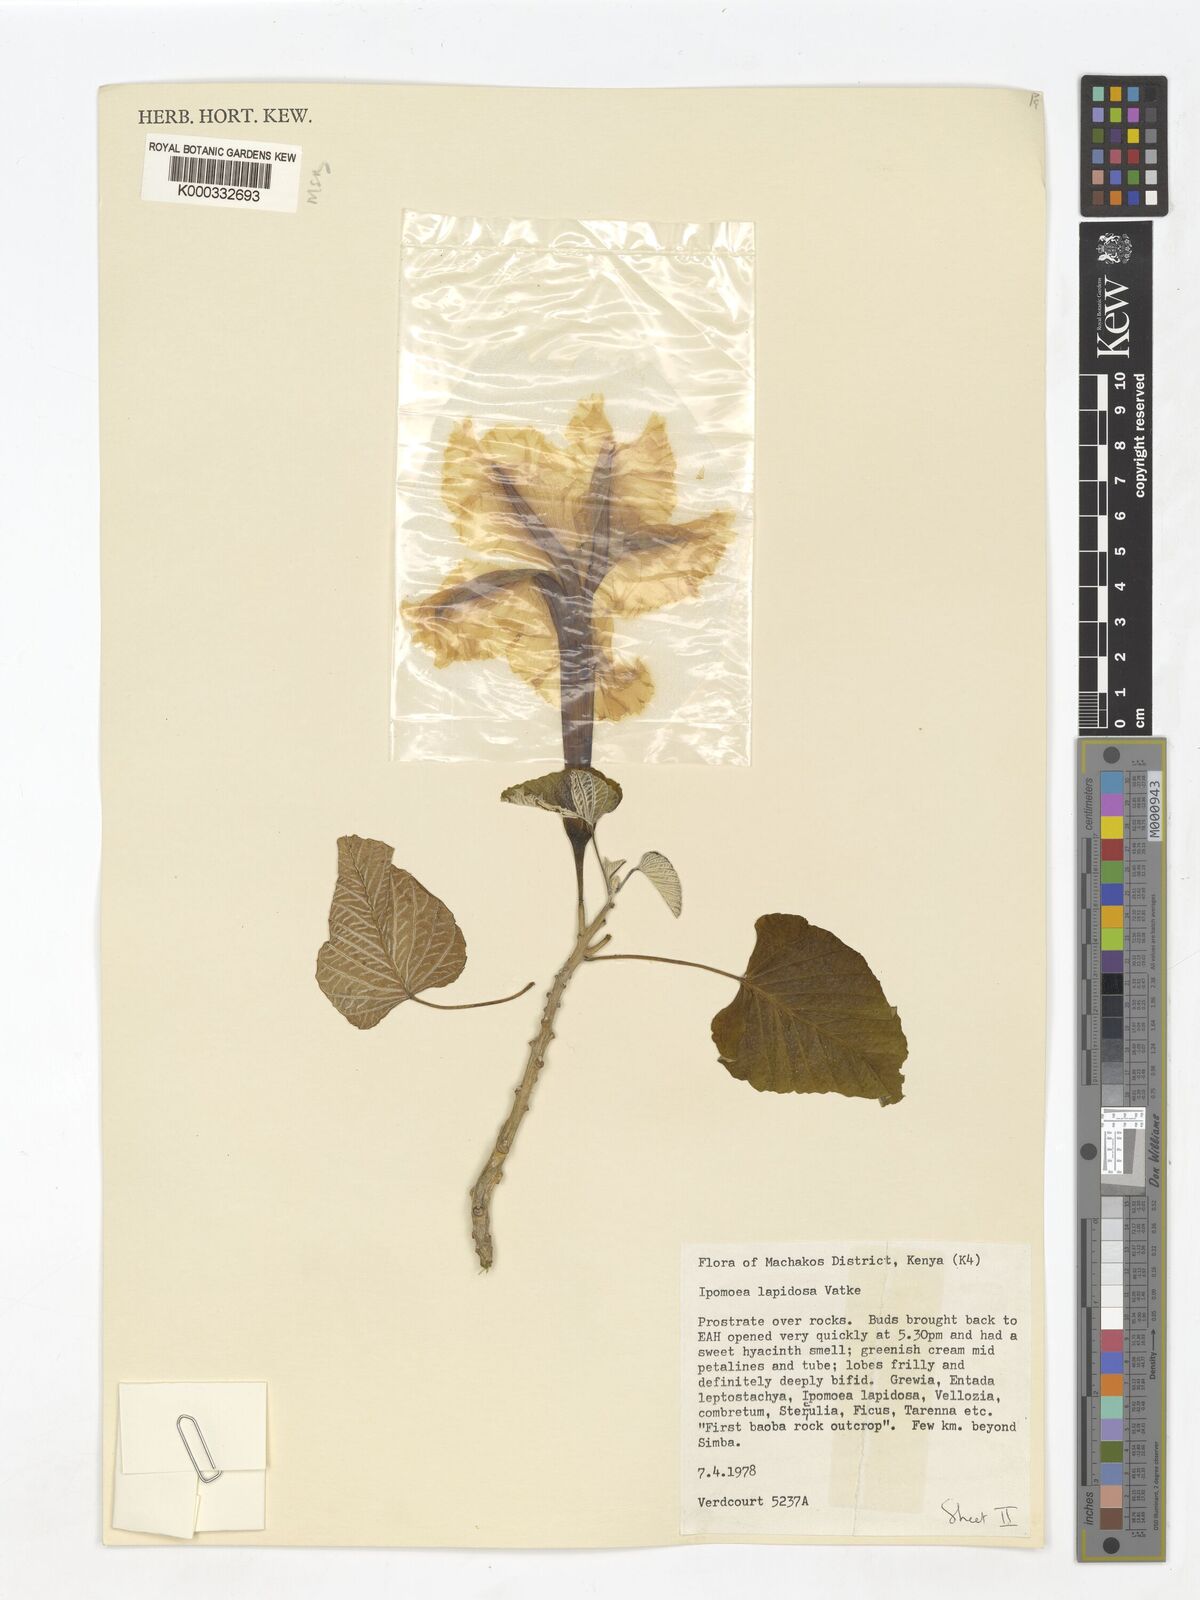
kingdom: Plantae
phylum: Tracheophyta
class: Magnoliopsida
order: Solanales
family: Convolvulaceae
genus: Ipomoea
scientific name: Ipomoea lapidosa
